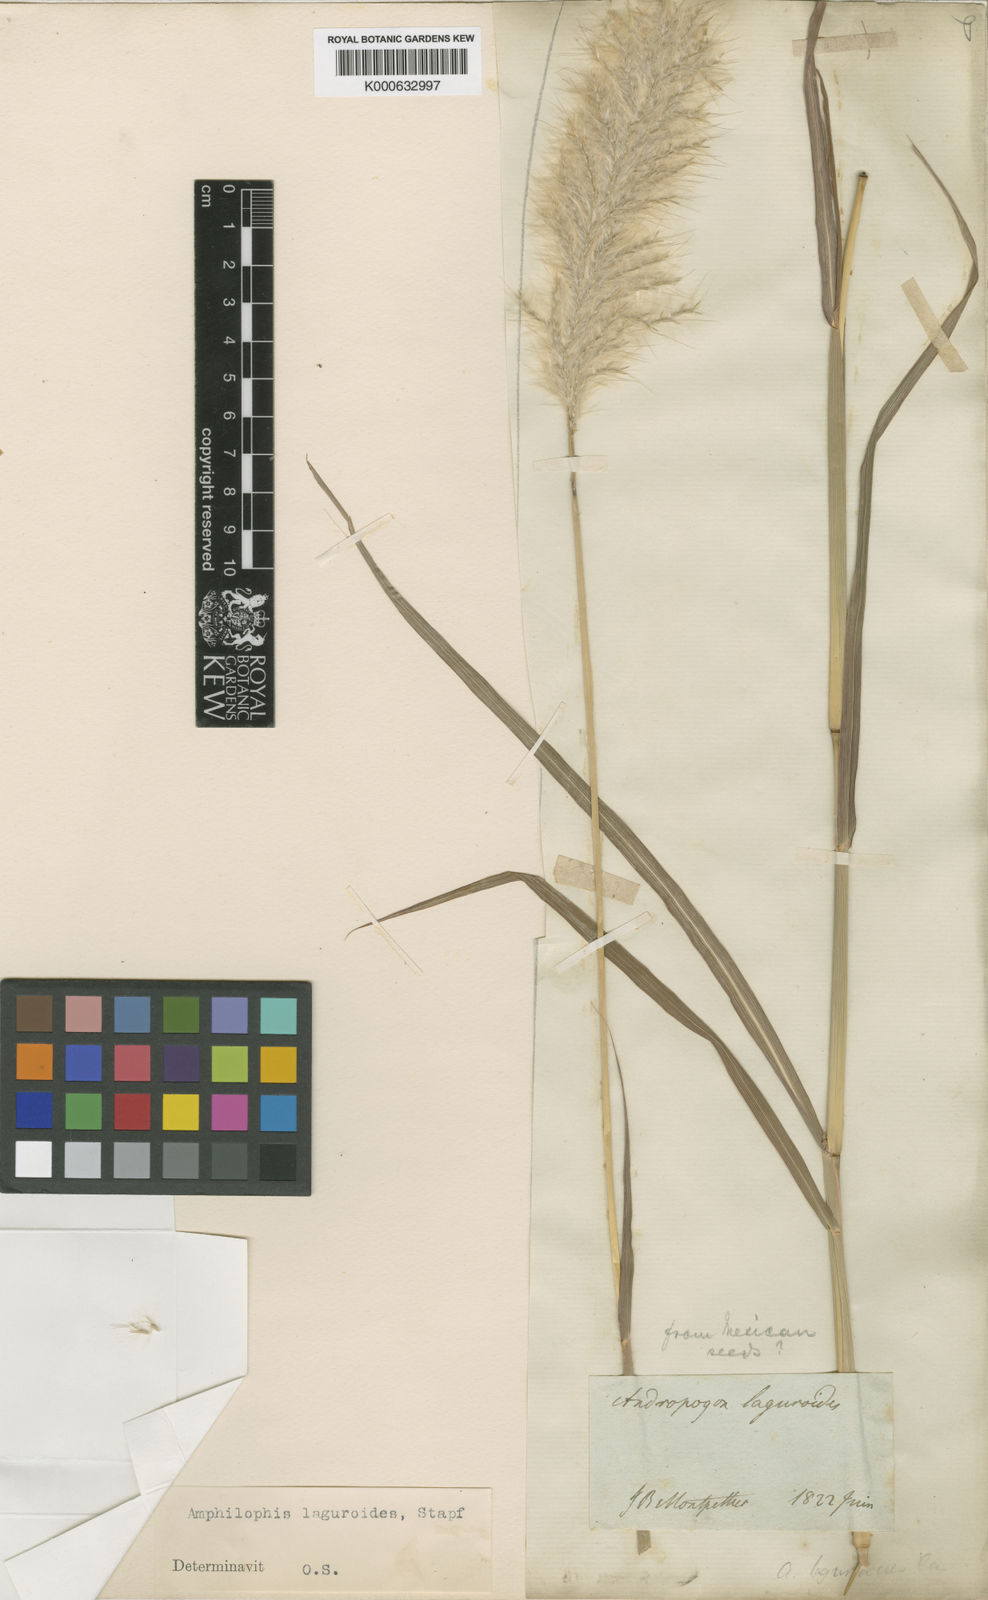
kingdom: Plantae
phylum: Tracheophyta
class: Liliopsida
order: Poales
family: Poaceae
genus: Bothriochloa
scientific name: Bothriochloa laguroides
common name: Silver bluestem
